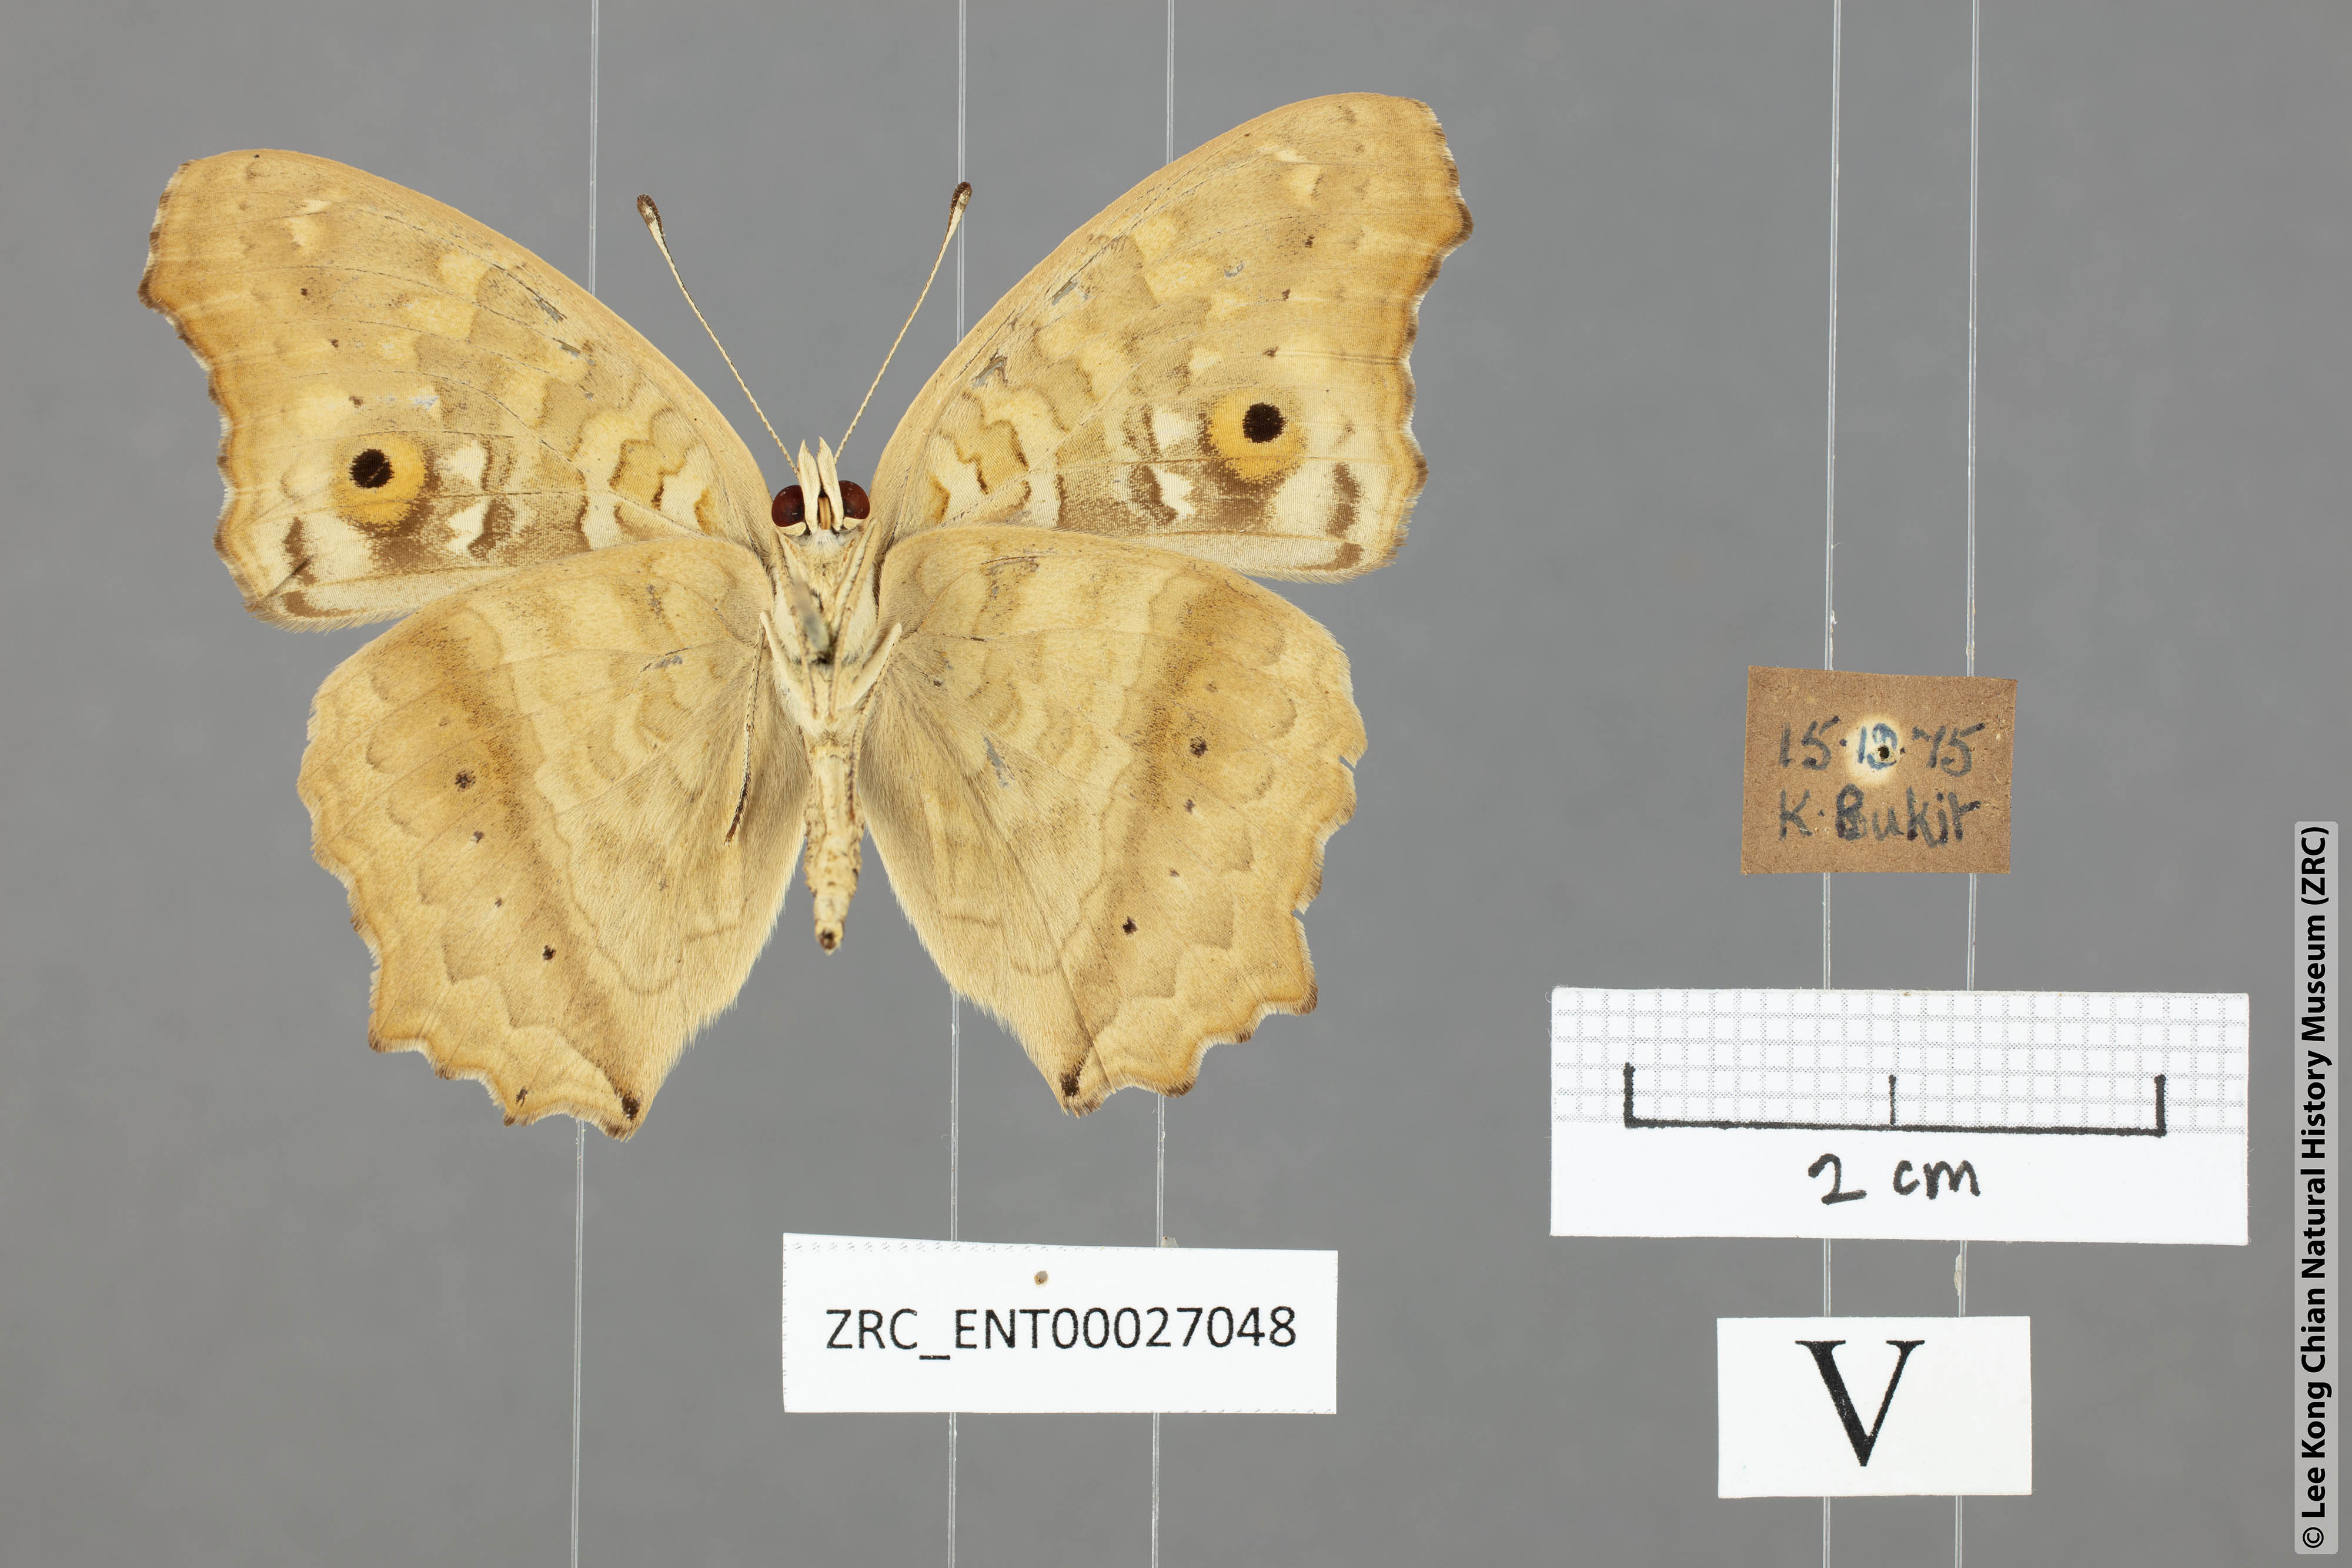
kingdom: Animalia
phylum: Arthropoda
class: Insecta
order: Lepidoptera
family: Nymphalidae
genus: Junonia
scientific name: Junonia lemonias
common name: Lemon pansy
